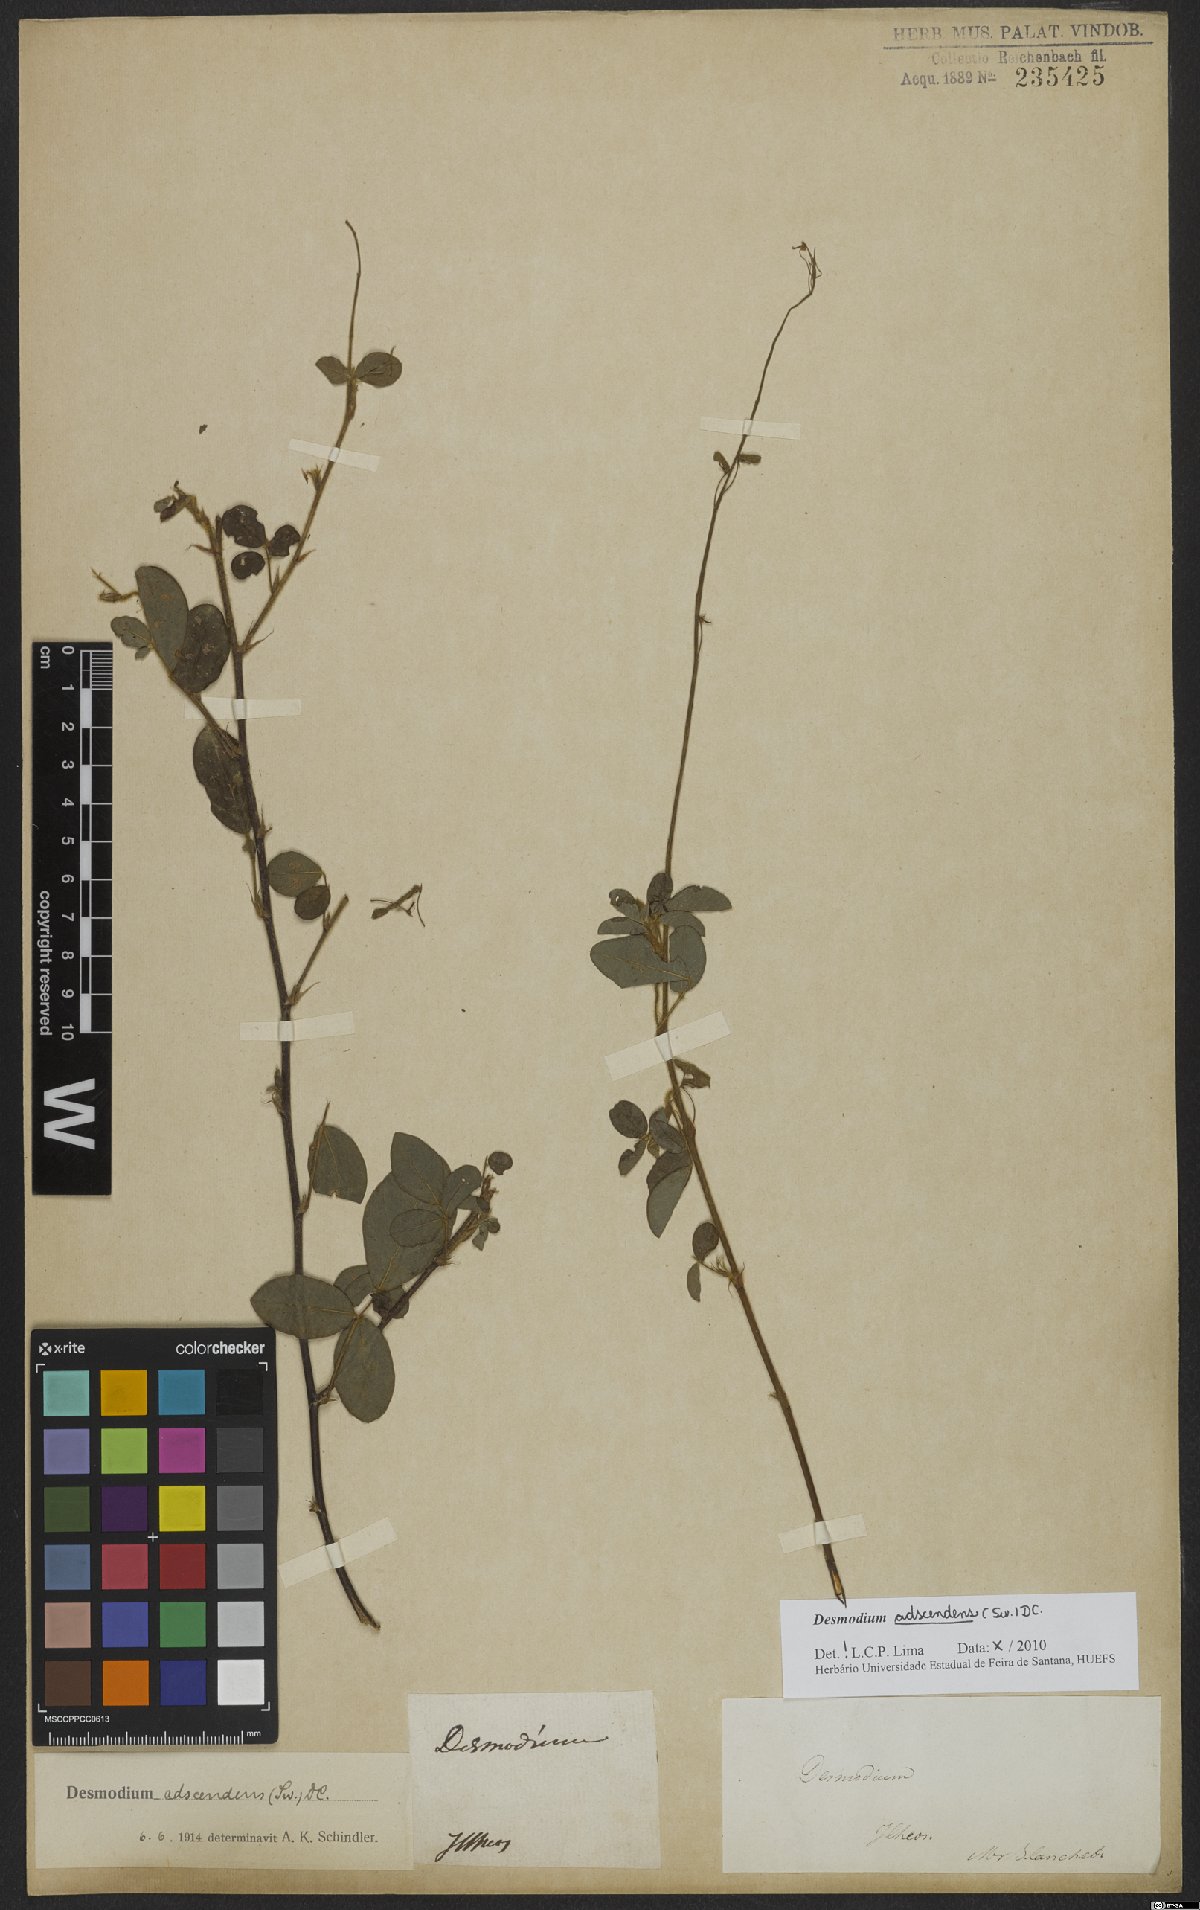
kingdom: Plantae
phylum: Tracheophyta
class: Magnoliopsida
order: Fabales
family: Fabaceae
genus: Grona
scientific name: Grona adscendens
